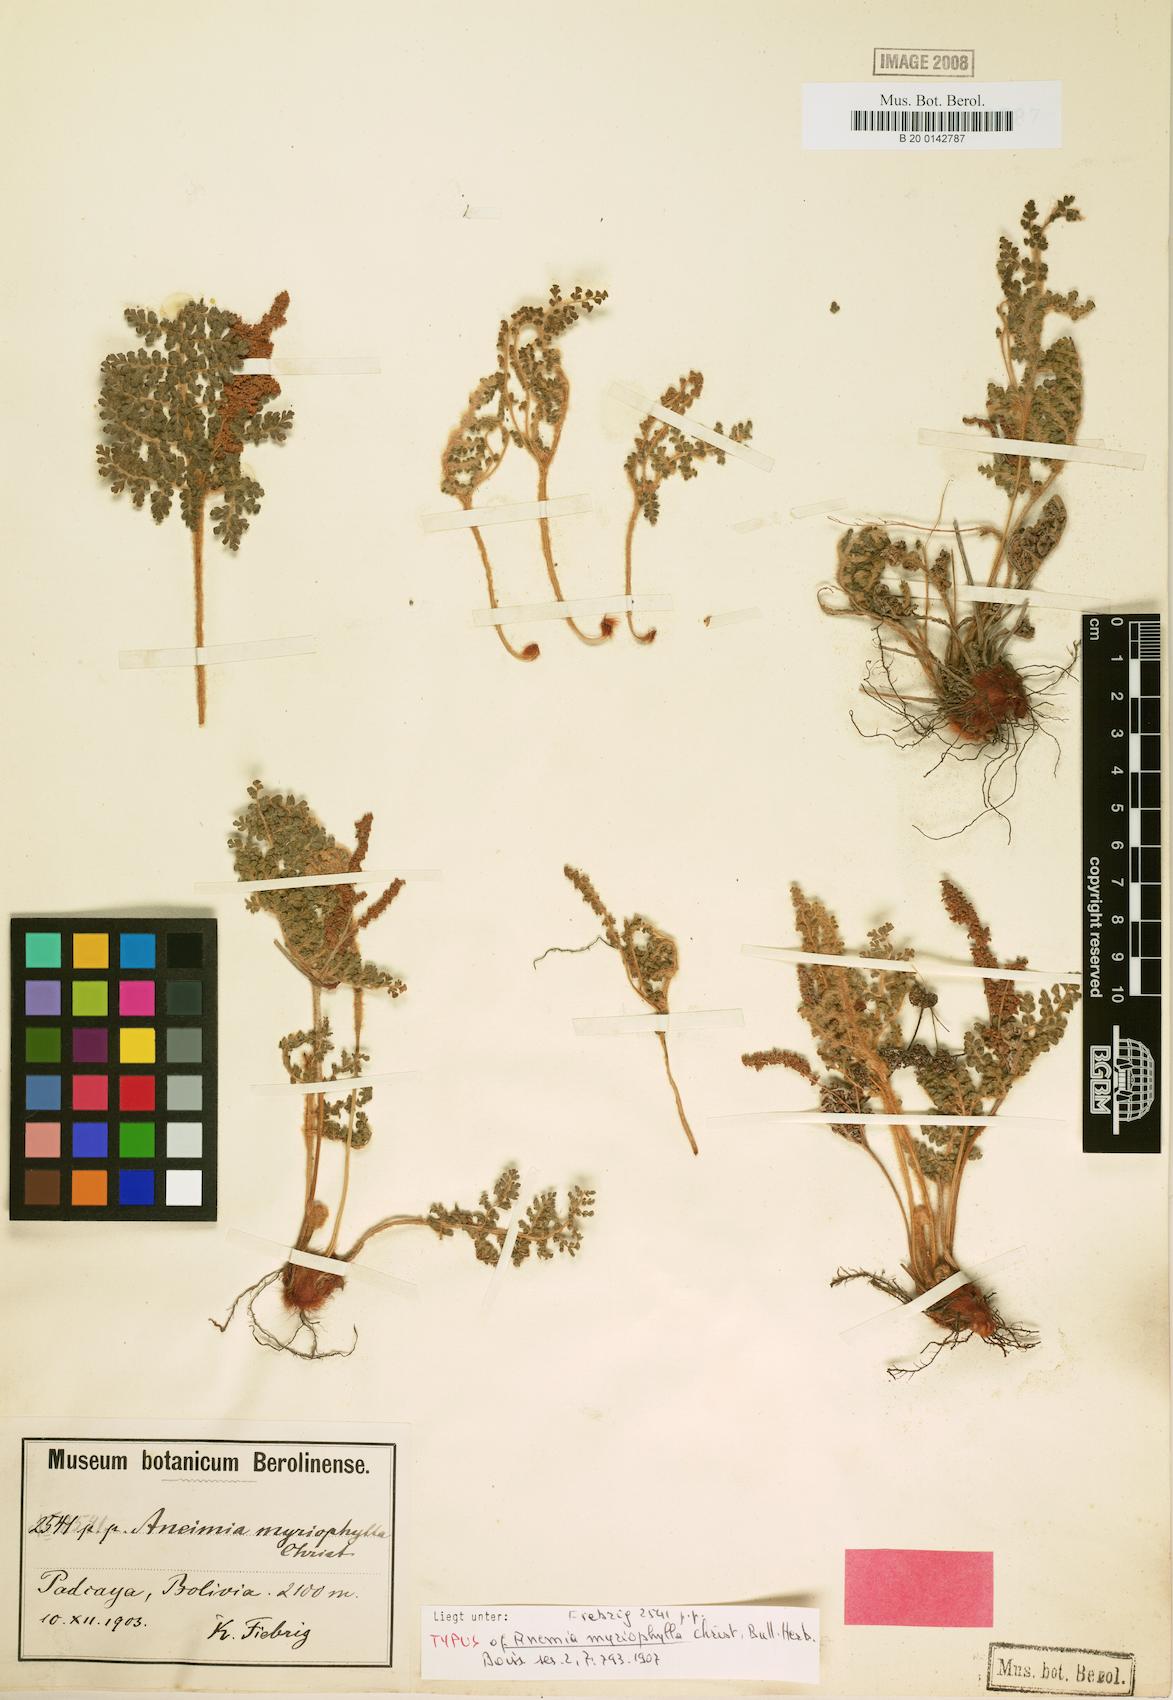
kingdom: Plantae
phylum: Tracheophyta
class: Polypodiopsida
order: Schizaeales
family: Anemiaceae
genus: Anemia
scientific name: Anemia myriophylla
